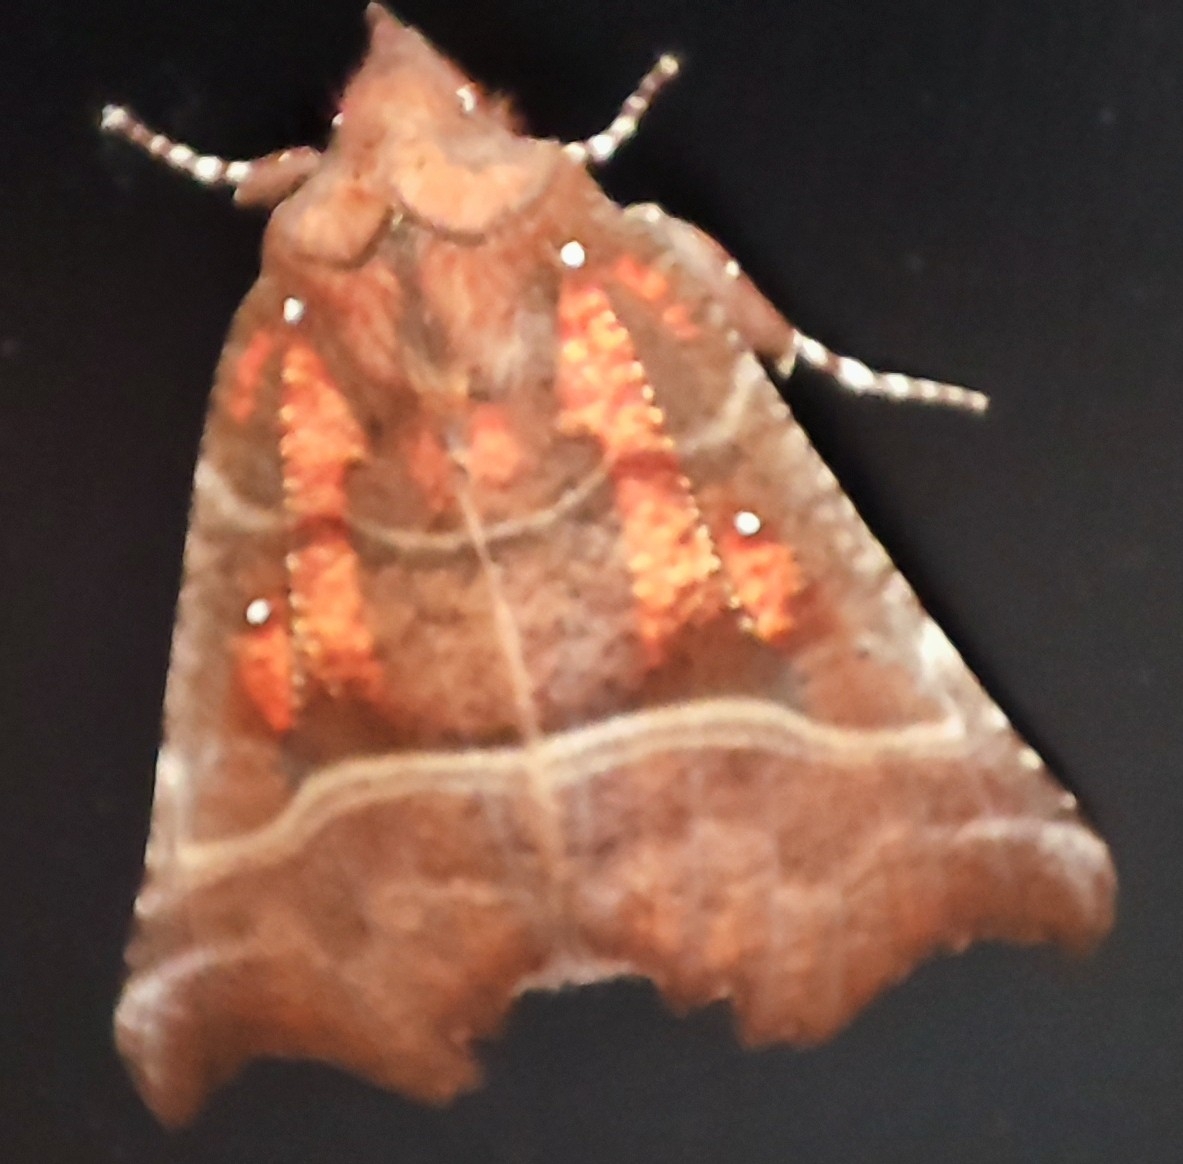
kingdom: Animalia
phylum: Arthropoda
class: Insecta
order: Lepidoptera
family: Erebidae
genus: Scoliopteryx
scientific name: Scoliopteryx libatrix
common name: Husmoderugle
